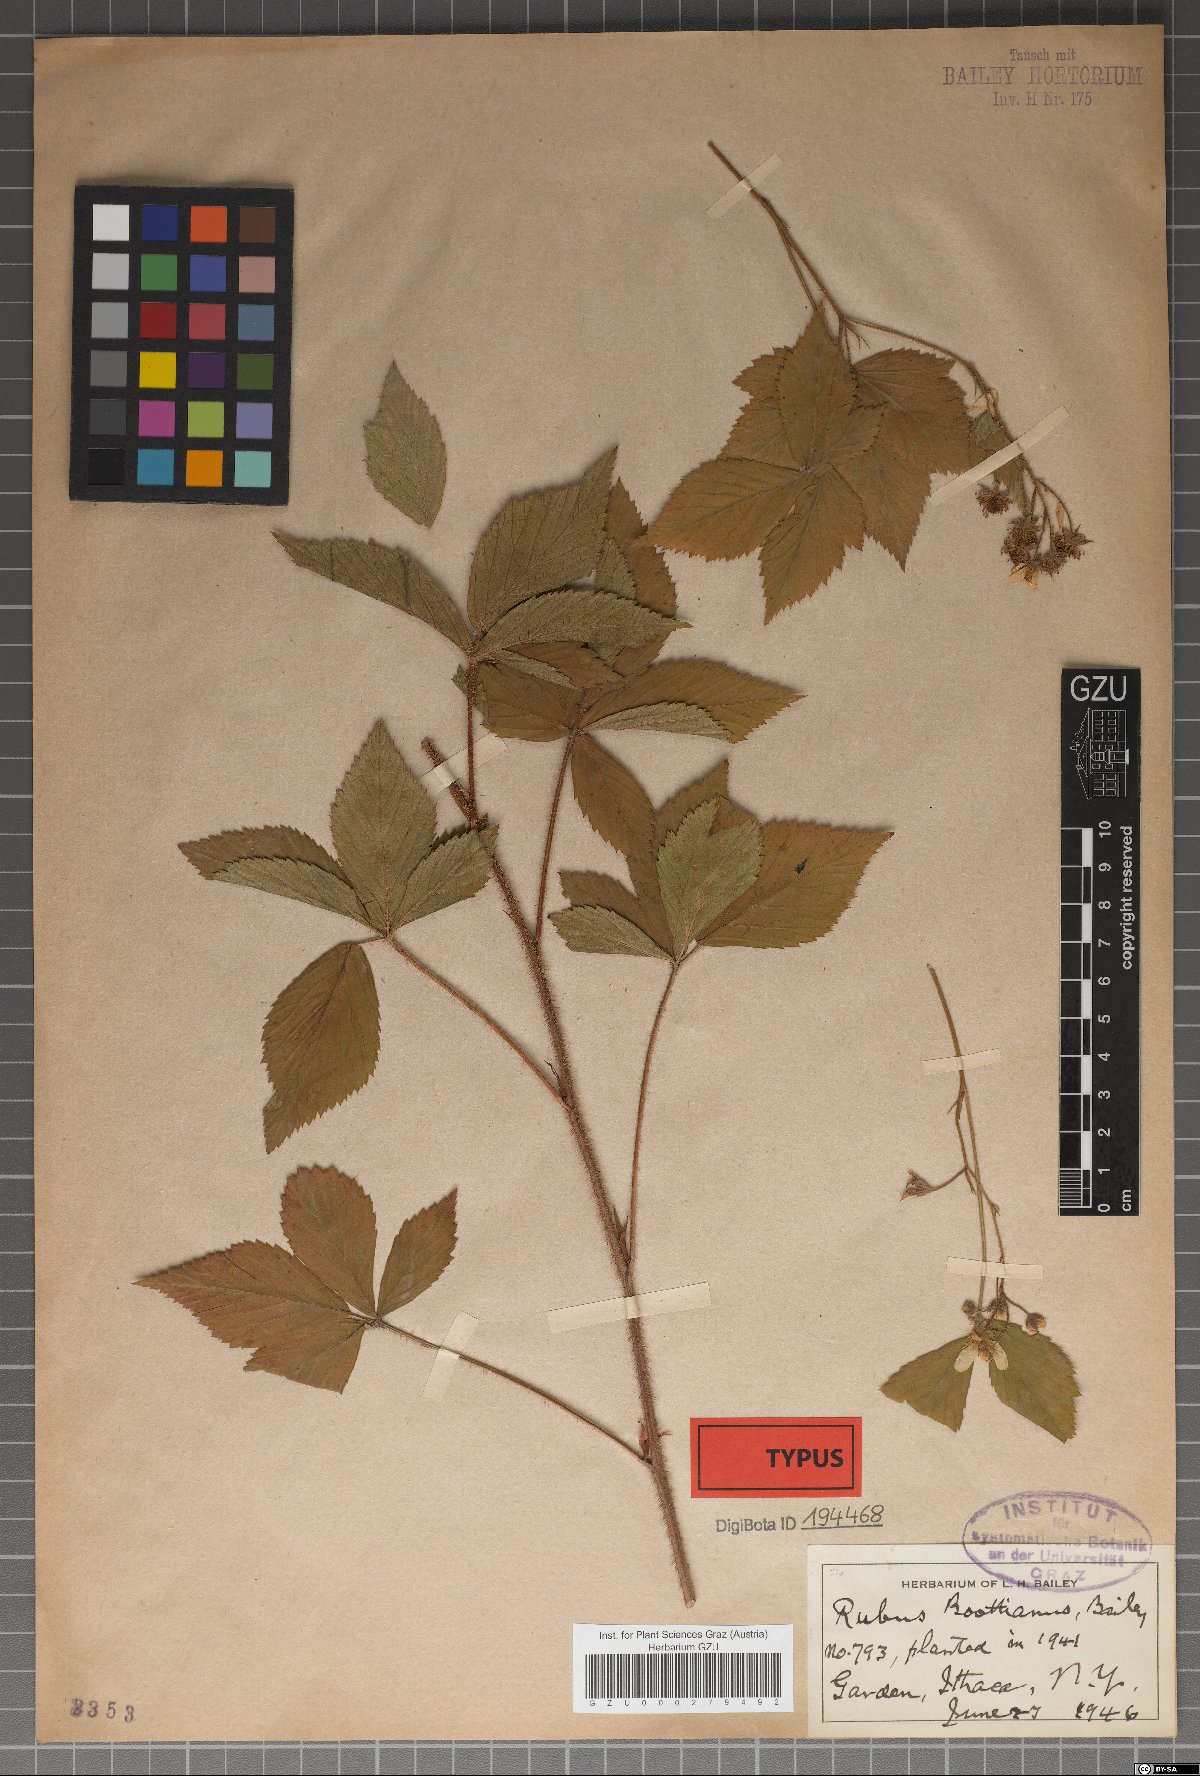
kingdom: Plantae
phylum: Tracheophyta
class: Magnoliopsida
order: Rosales
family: Rosaceae
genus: Rubus
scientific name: Rubus notatus
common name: Bristle berry
